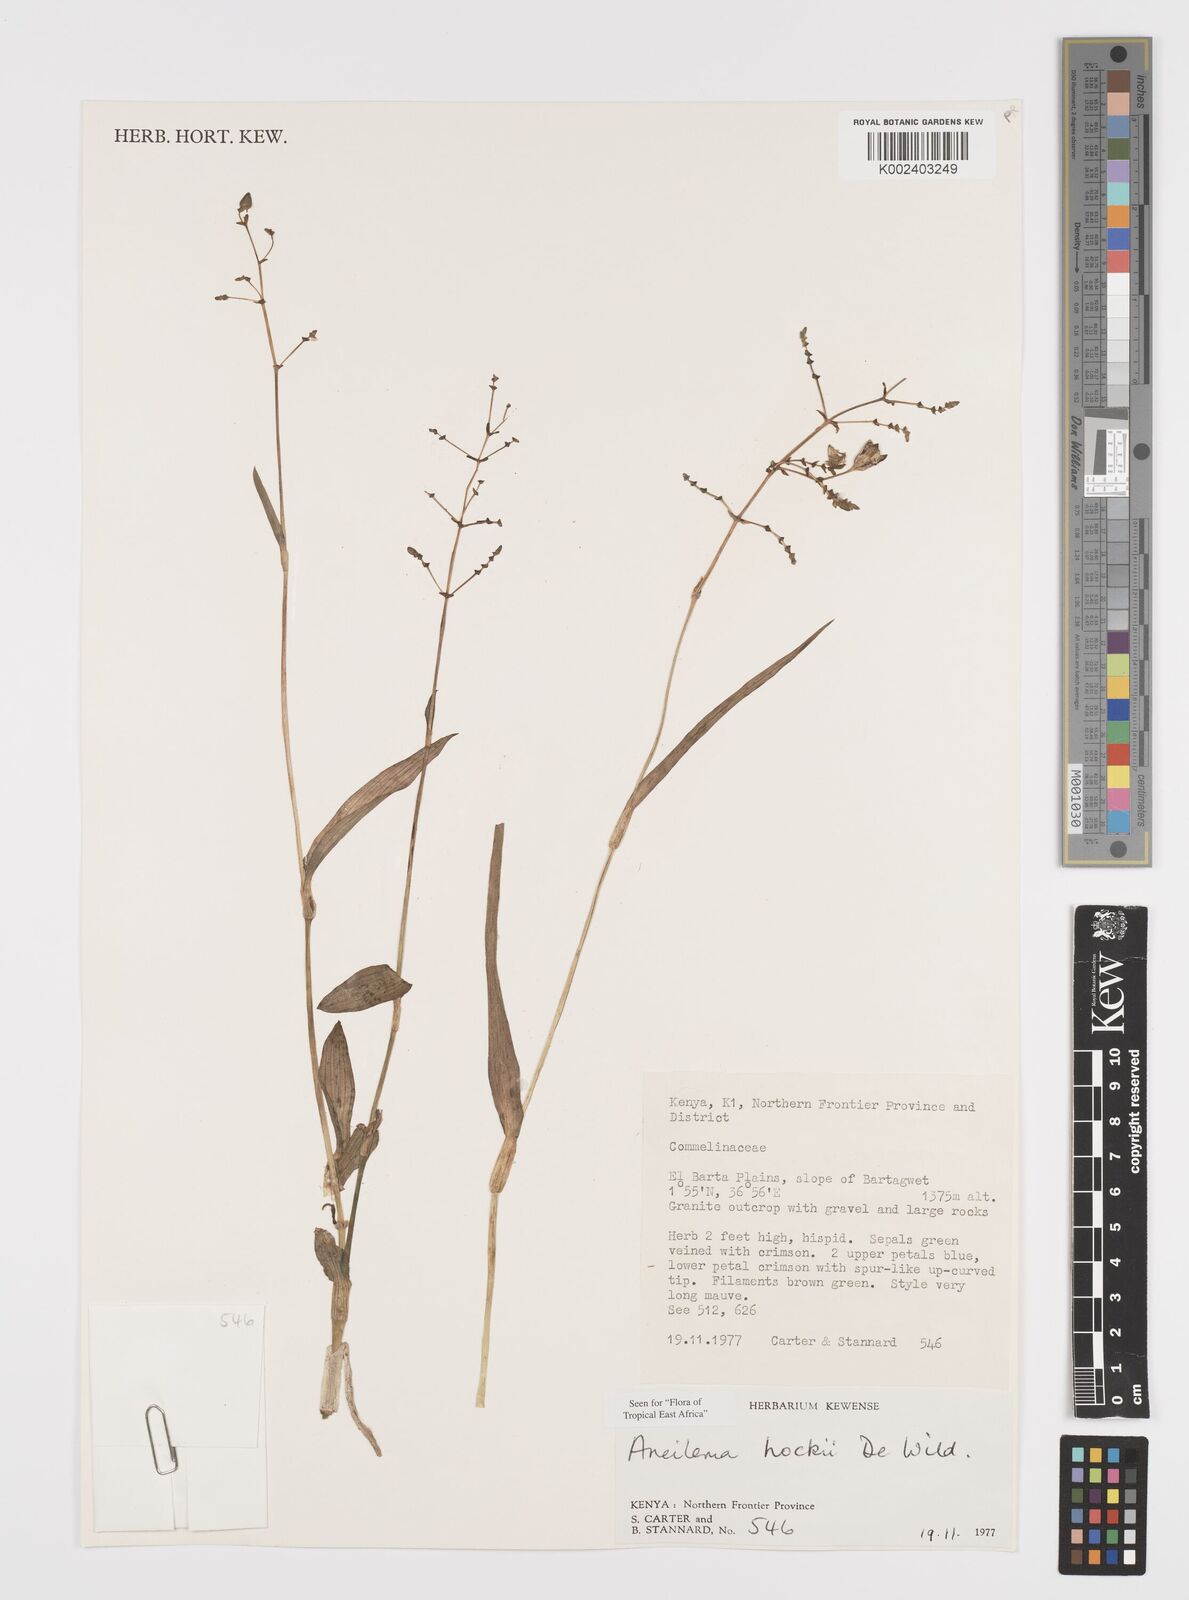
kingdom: Plantae
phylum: Tracheophyta
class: Liliopsida
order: Commelinales
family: Commelinaceae
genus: Aneilema
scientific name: Aneilema hockii
